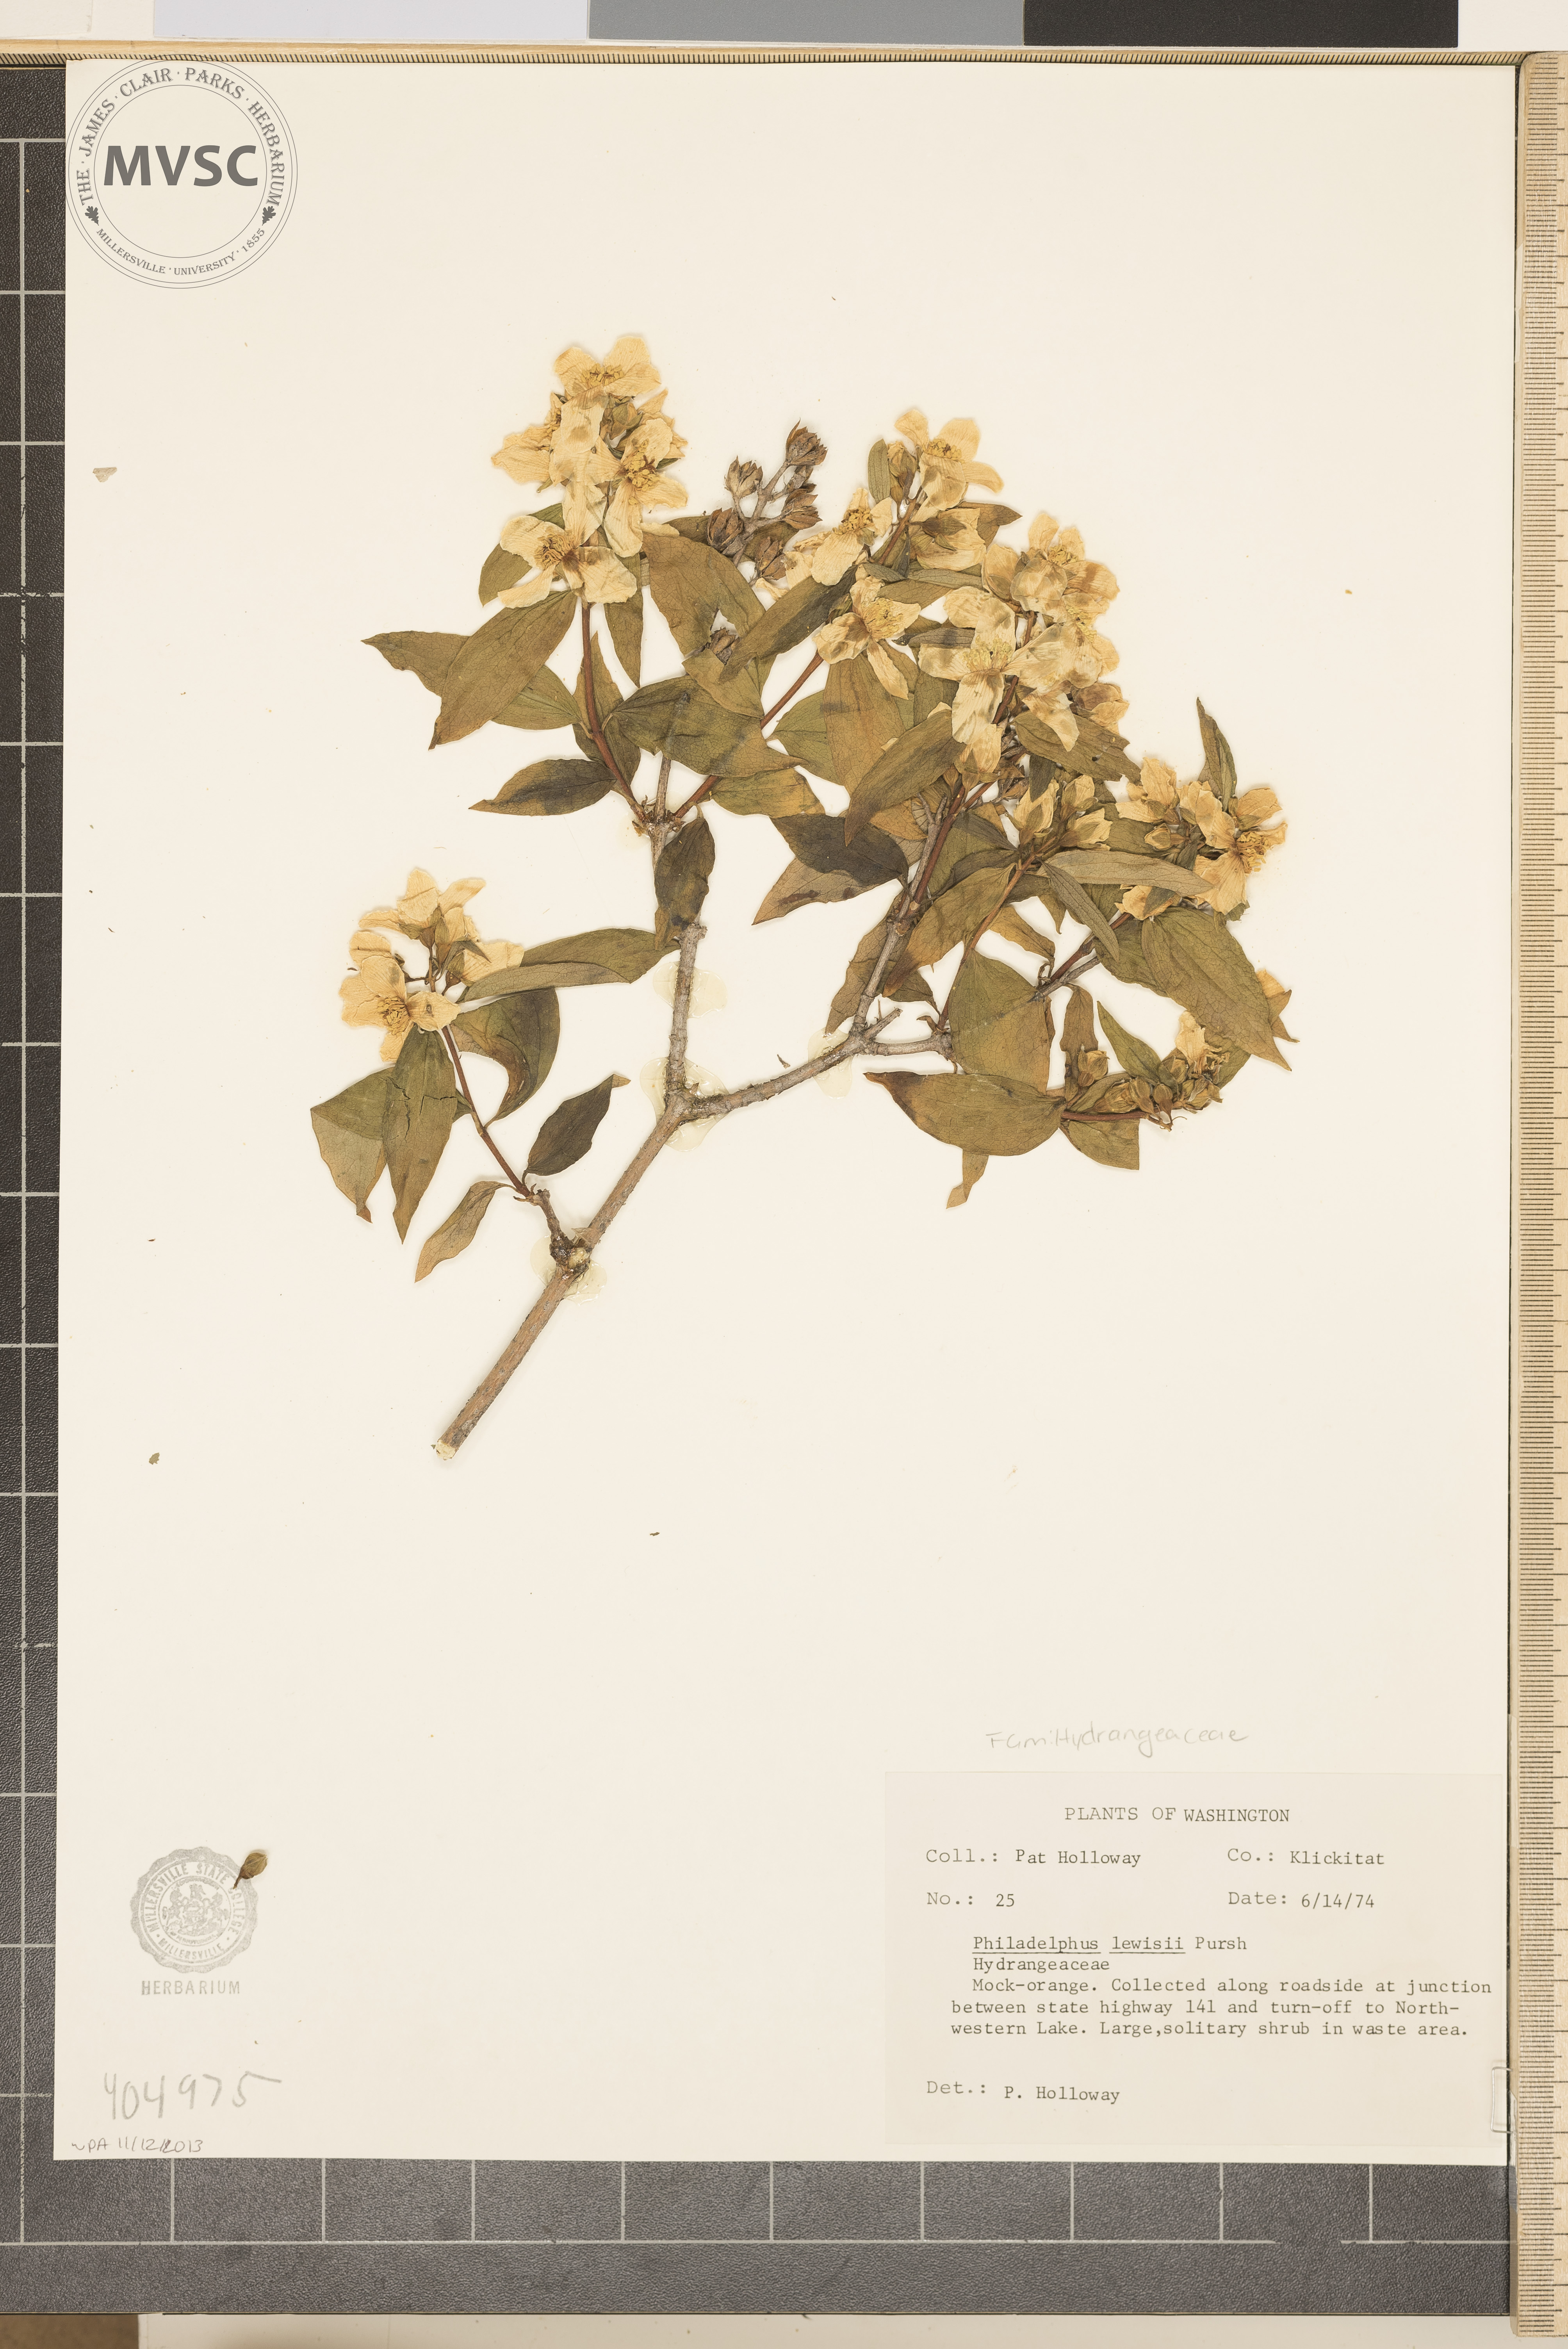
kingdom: Plantae
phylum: Tracheophyta
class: Magnoliopsida
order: Cornales
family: Hydrangeaceae
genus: Philadelphus
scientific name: Philadelphus lewisii
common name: Lewis's mock orange
